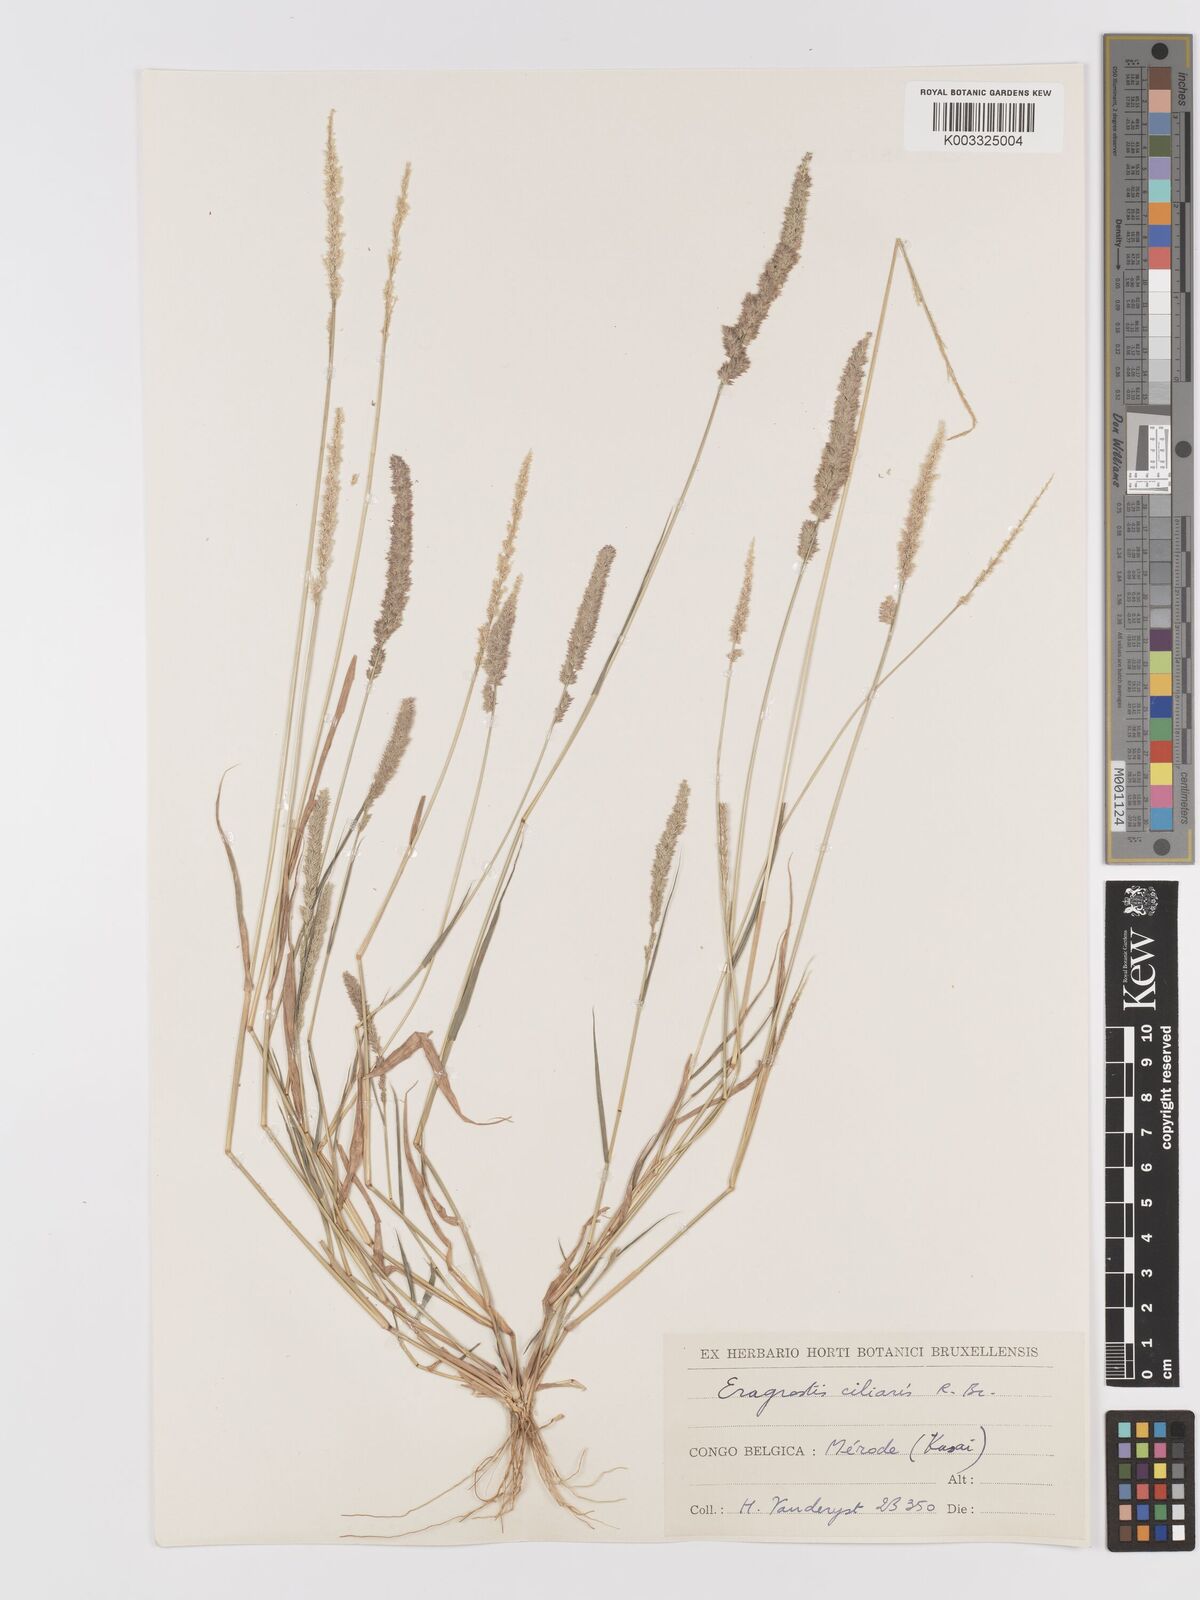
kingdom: Plantae
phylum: Tracheophyta
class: Liliopsida
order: Poales
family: Poaceae
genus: Eragrostis
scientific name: Eragrostis ciliaris
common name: Gophertail lovegrass
